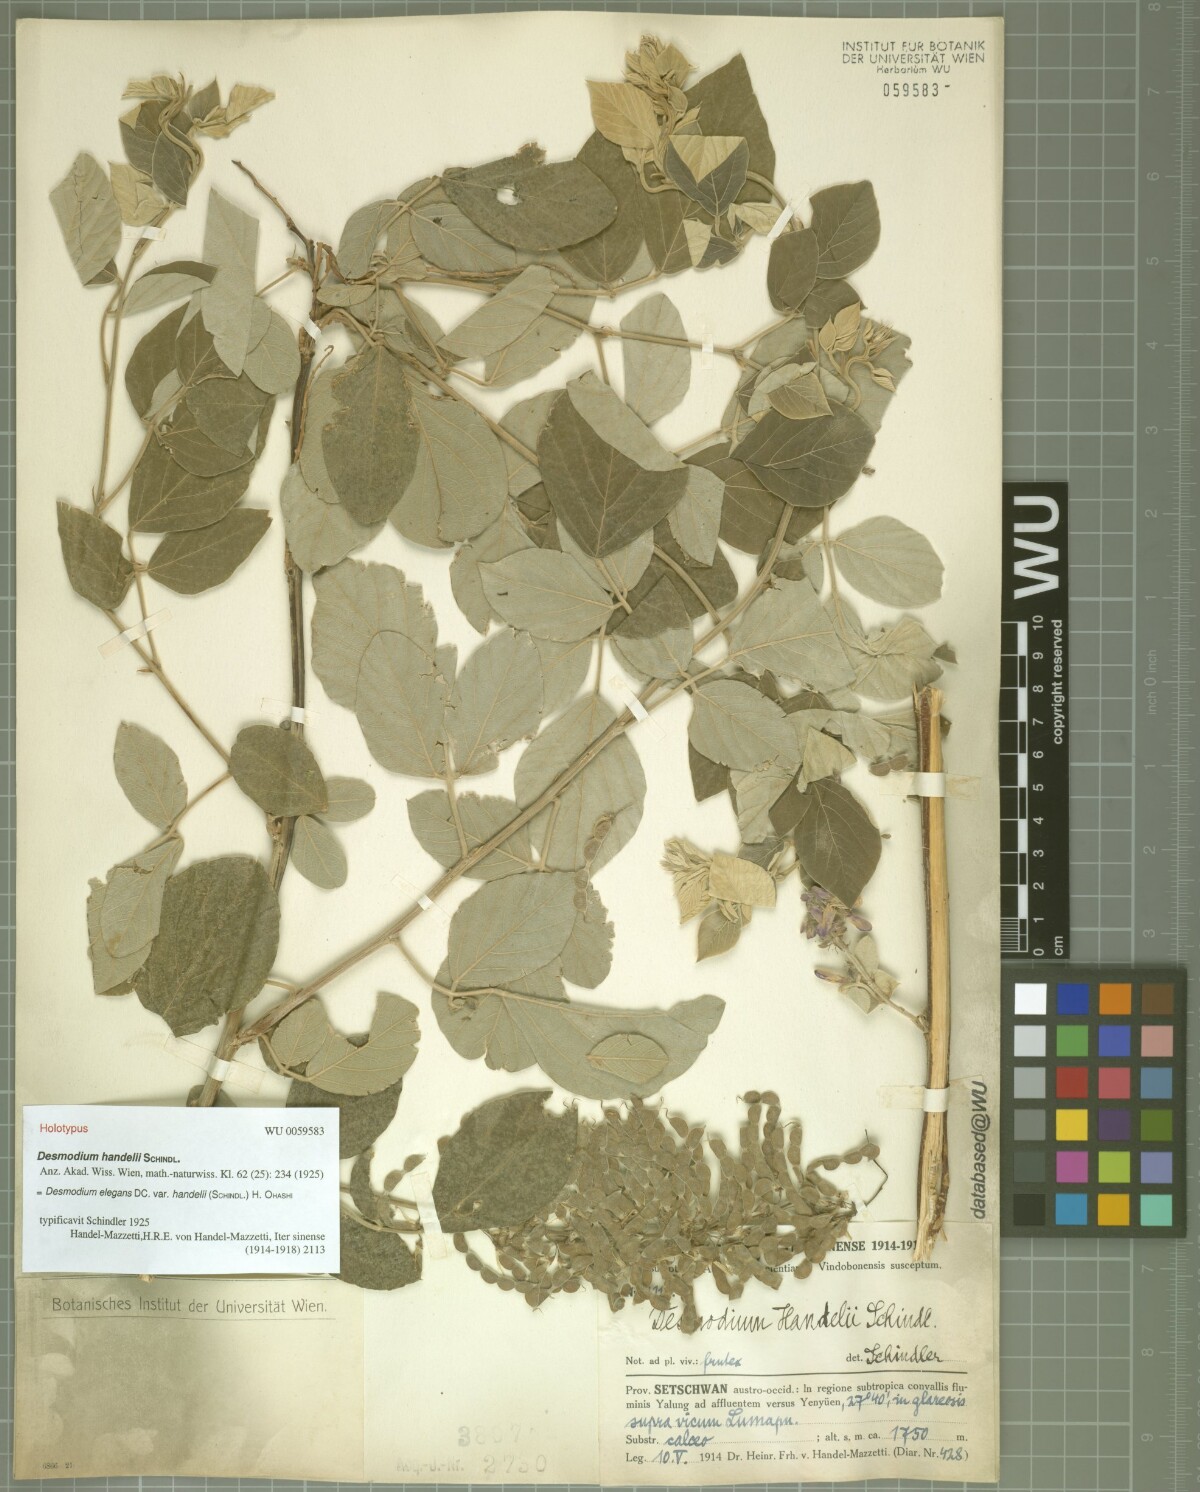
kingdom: Plantae
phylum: Tracheophyta
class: Magnoliopsida
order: Fabales
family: Fabaceae
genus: Sunhangia
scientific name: Sunhangia elegans
